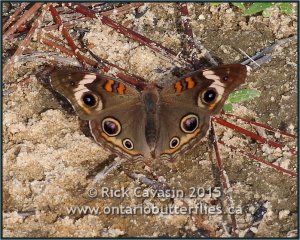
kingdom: Animalia
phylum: Arthropoda
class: Insecta
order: Lepidoptera
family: Nymphalidae
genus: Junonia
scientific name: Junonia coenia
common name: Common Buckeye
